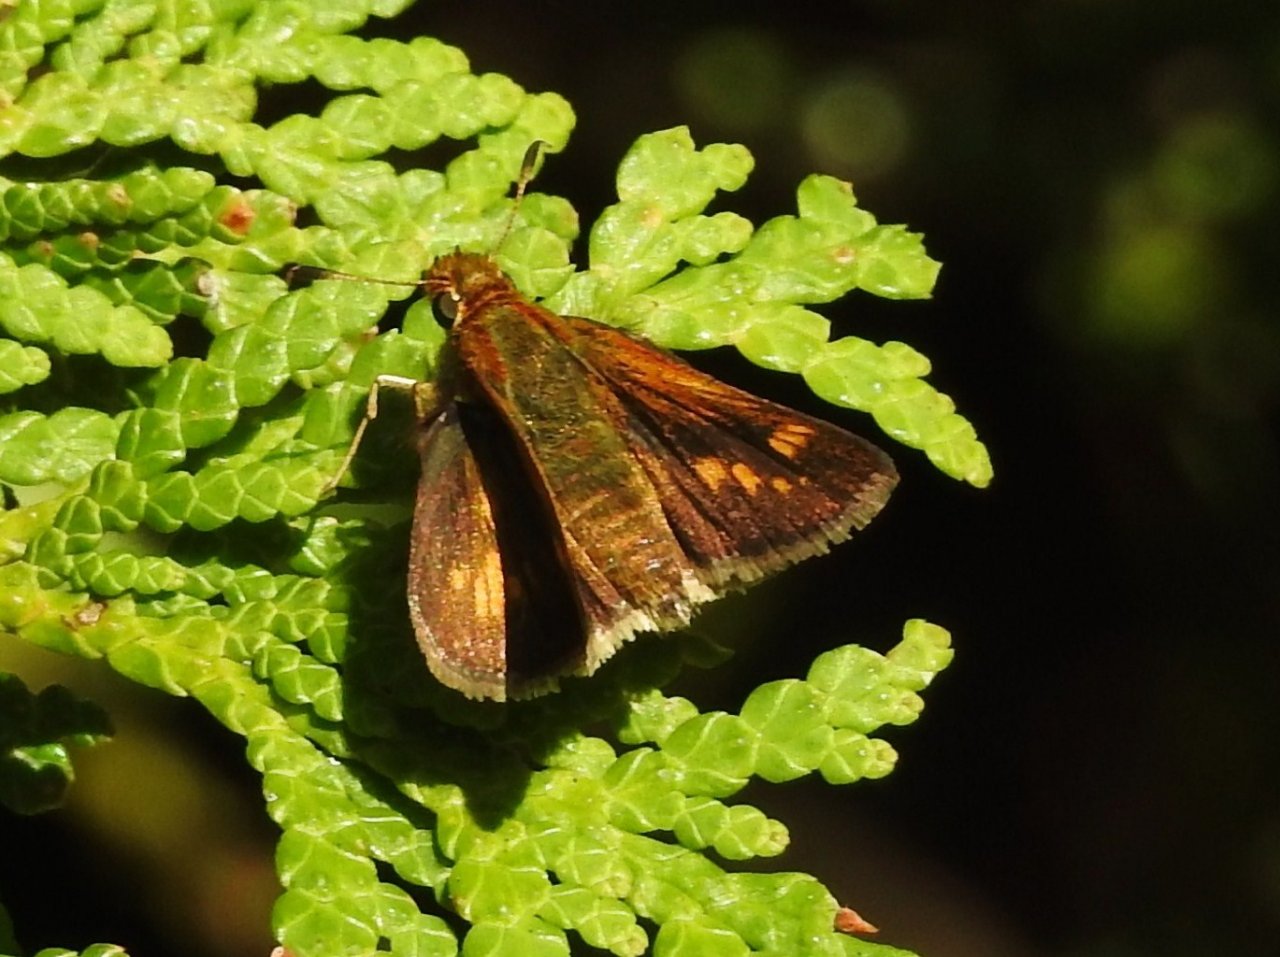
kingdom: Animalia
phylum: Arthropoda
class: Insecta
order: Lepidoptera
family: Hesperiidae
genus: Polites
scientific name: Polites coras
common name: Peck's Skipper
